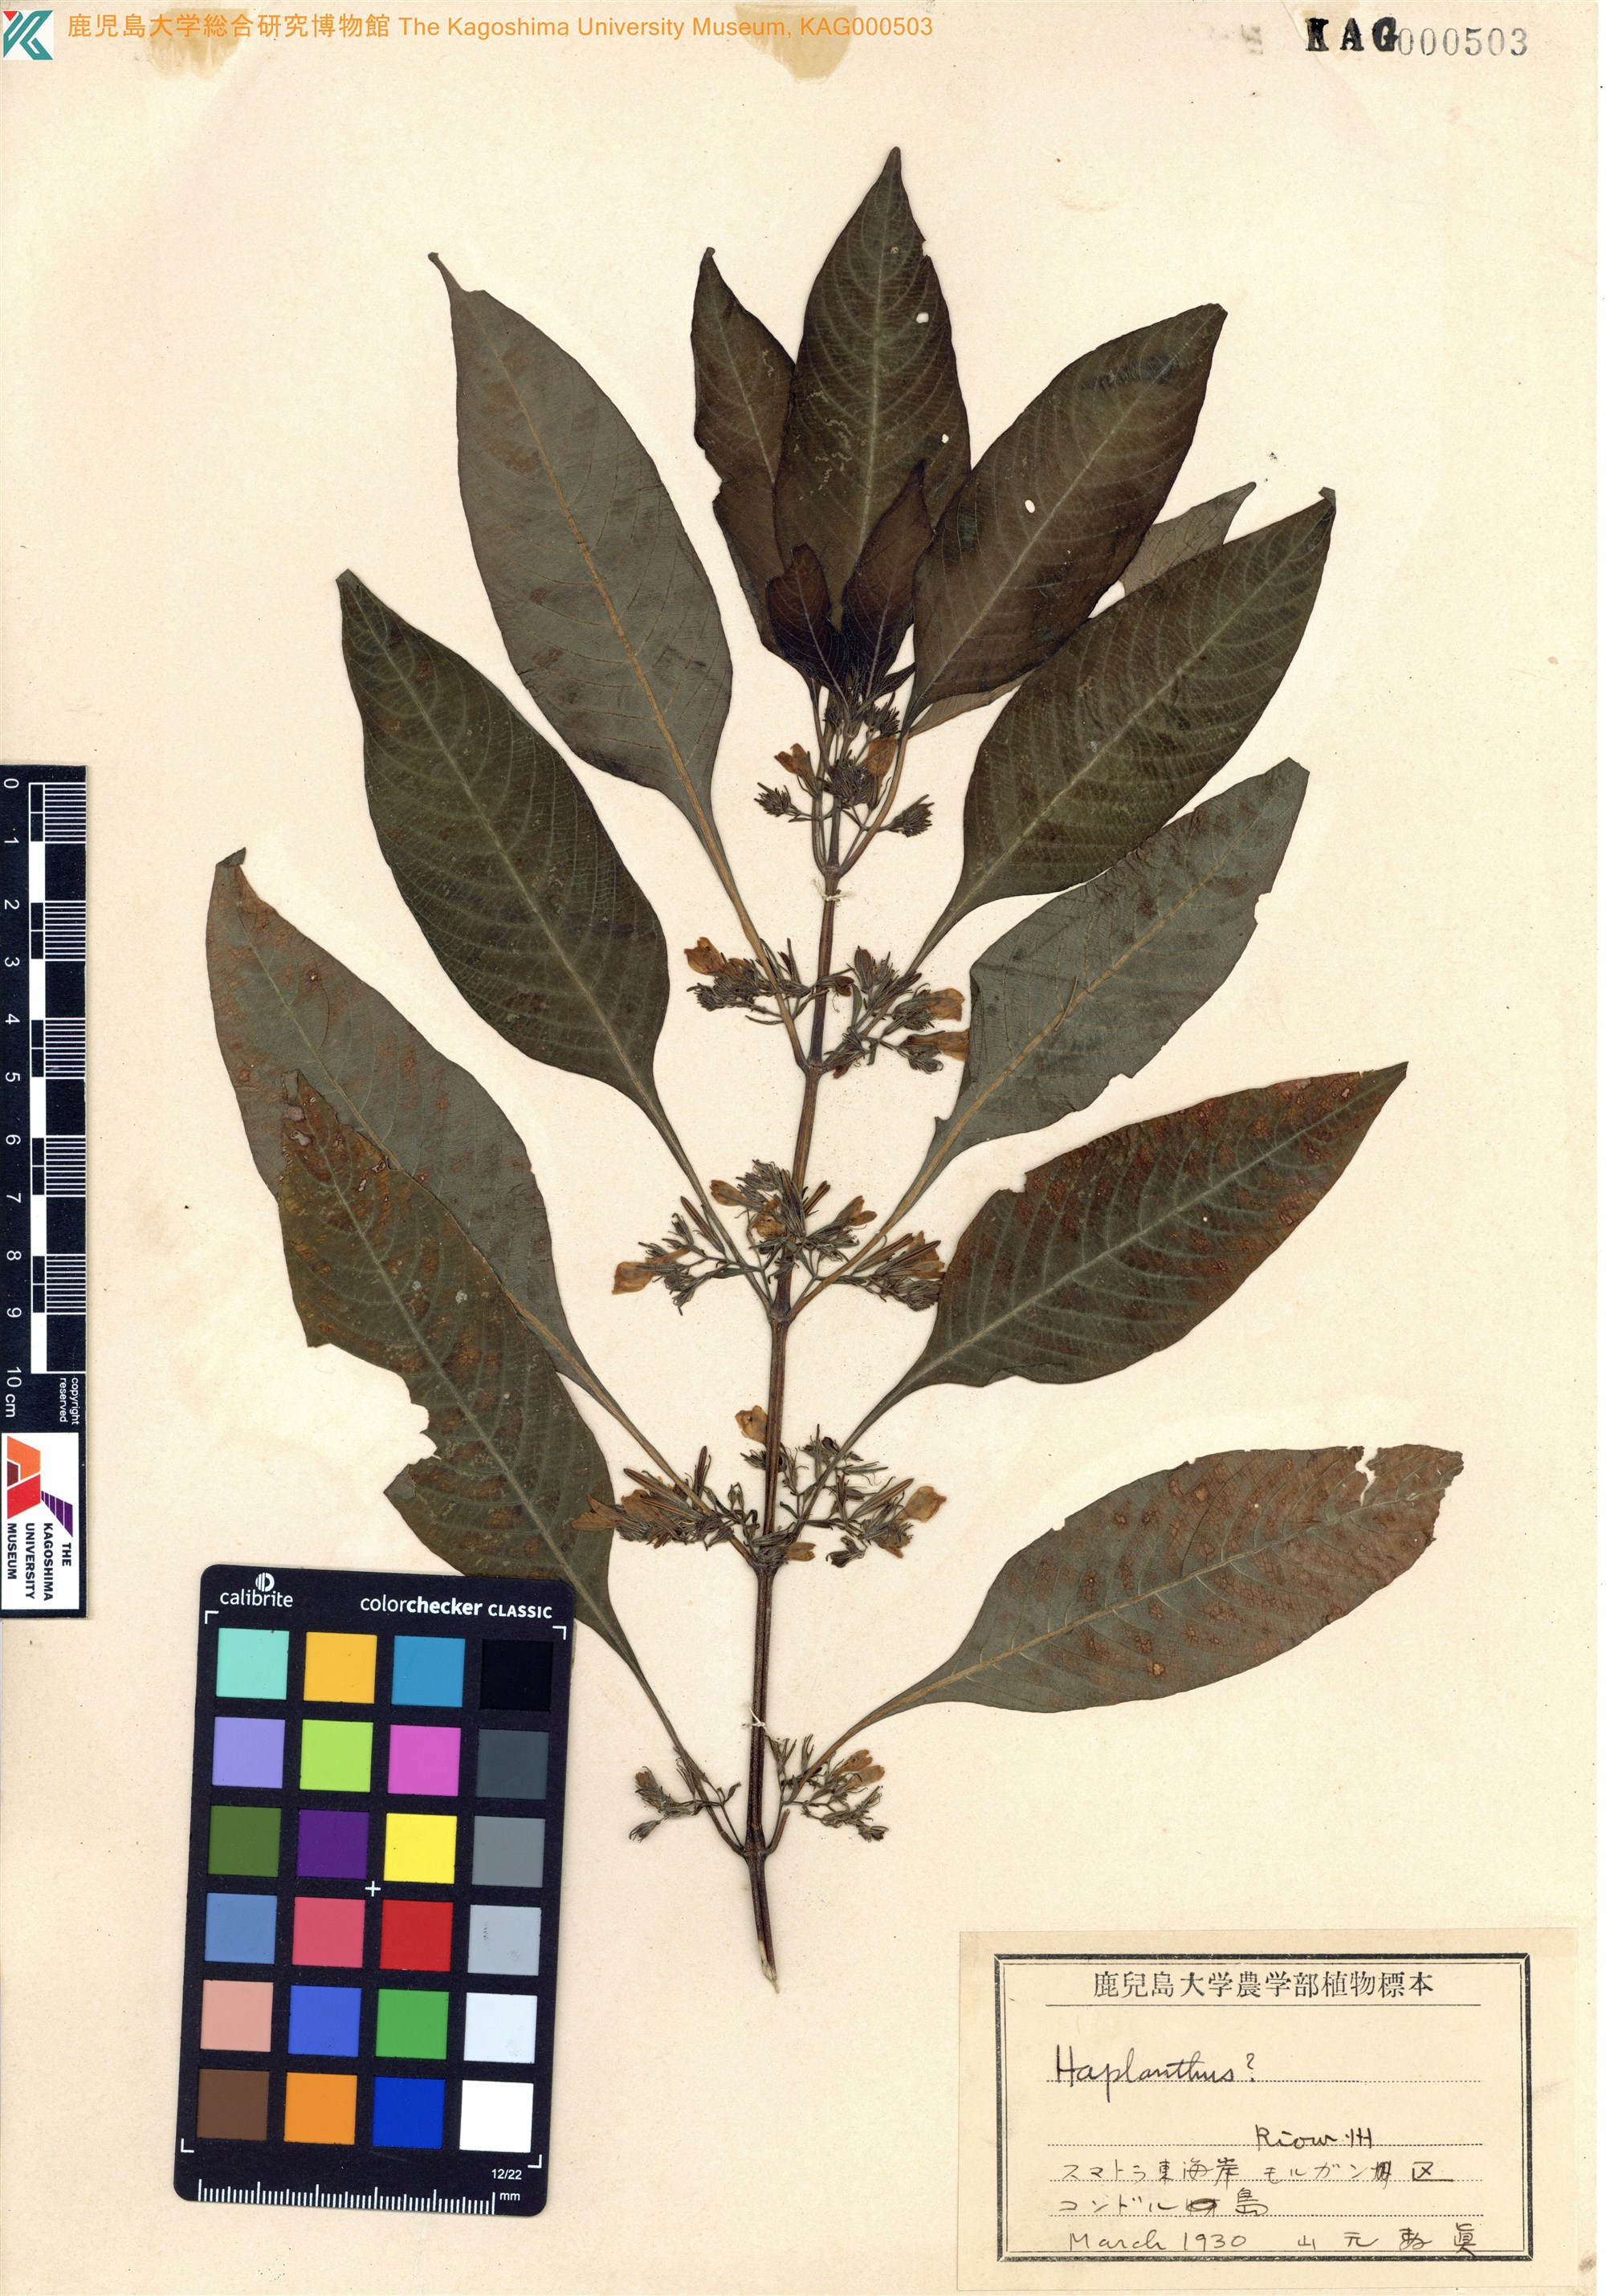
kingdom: Plantae
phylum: Tracheophyta
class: Magnoliopsida
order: Lamiales
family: Acanthaceae
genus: Haplanthus
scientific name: Haplanthus
